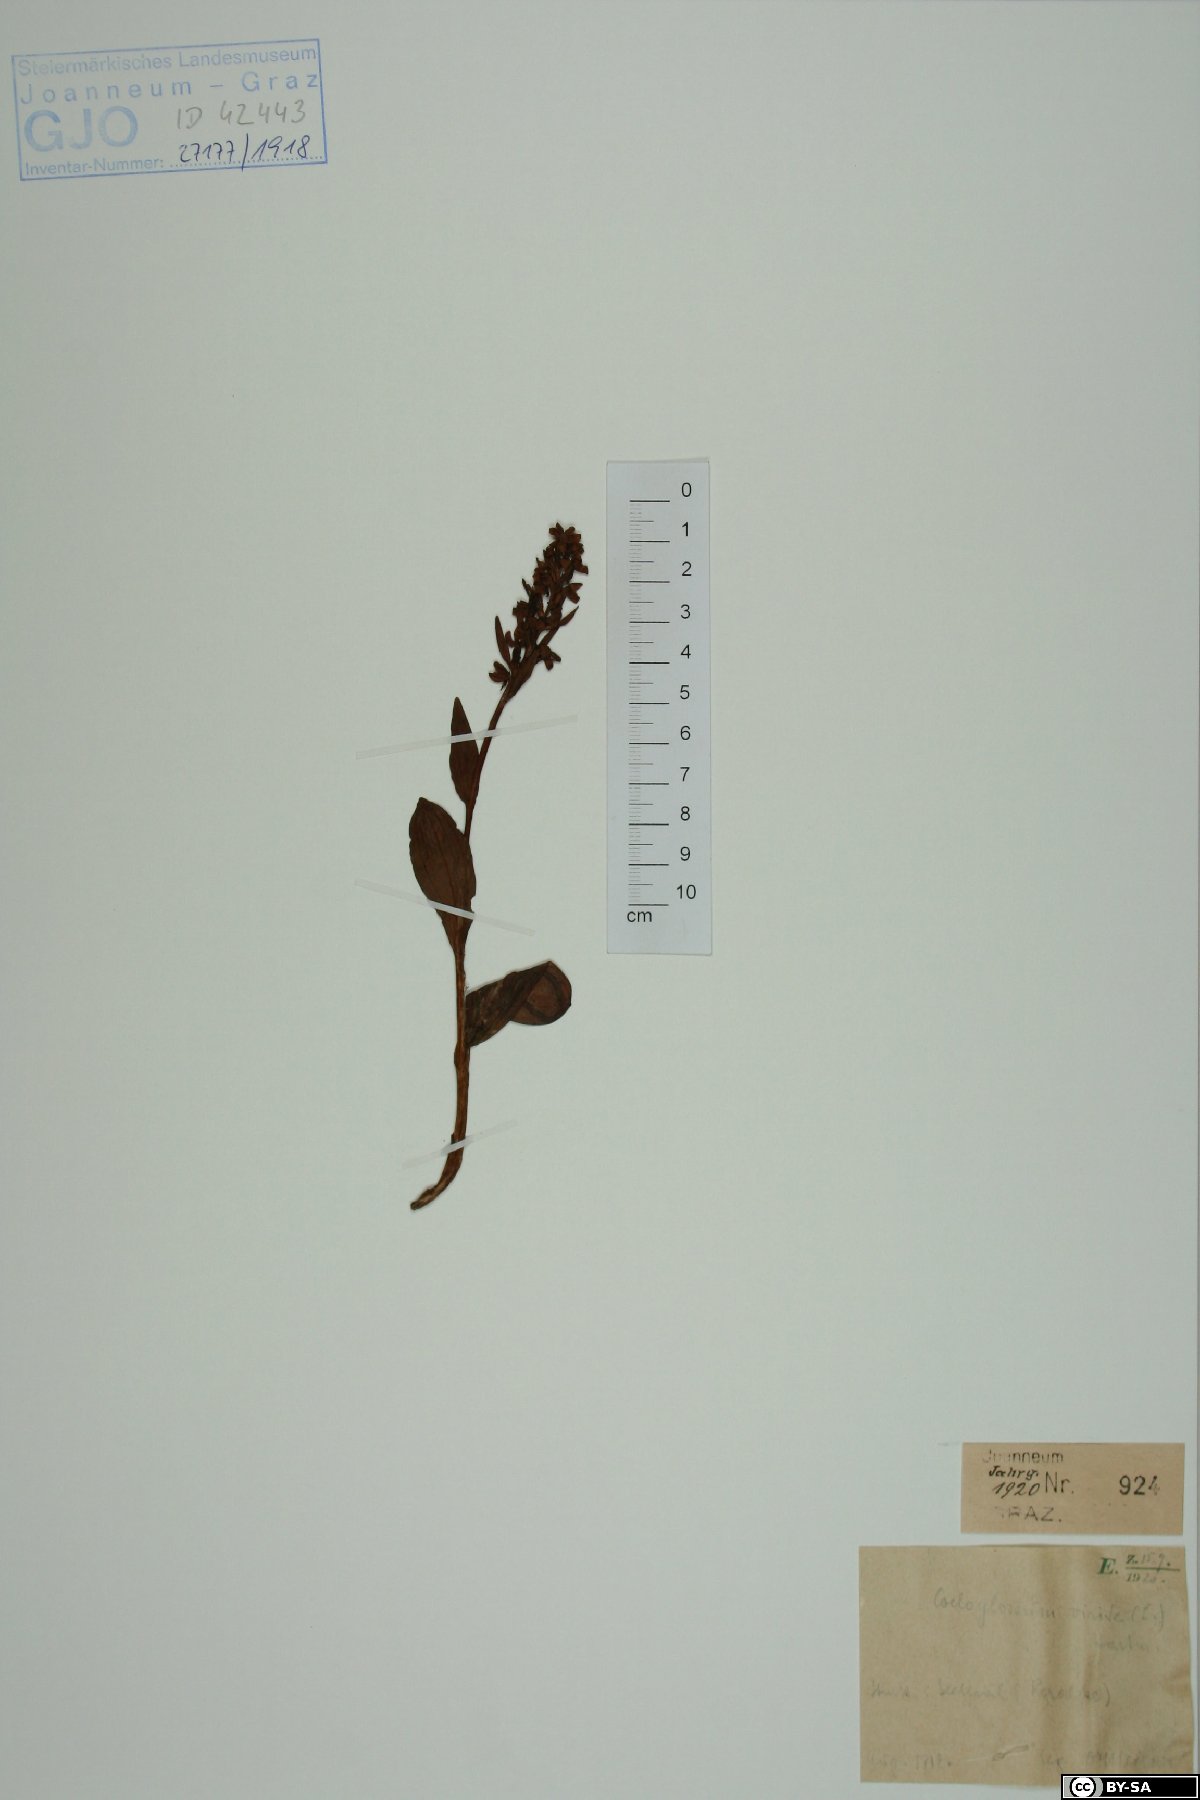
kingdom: Plantae
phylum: Tracheophyta
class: Liliopsida
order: Asparagales
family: Orchidaceae
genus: Dactylorhiza
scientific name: Dactylorhiza viridis
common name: Longbract frog orchid
